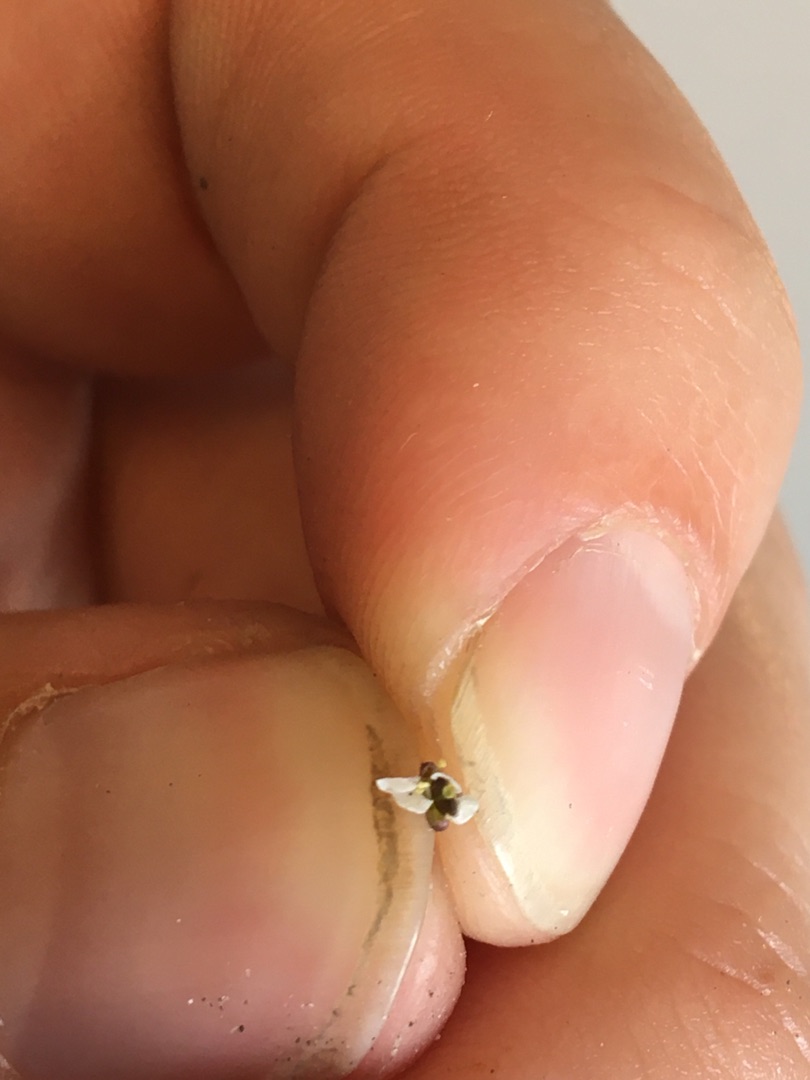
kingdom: Plantae
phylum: Tracheophyta
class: Magnoliopsida
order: Brassicales
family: Brassicaceae
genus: Capsella
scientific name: Capsella bursa-pastoris
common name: Hyrdetaske
